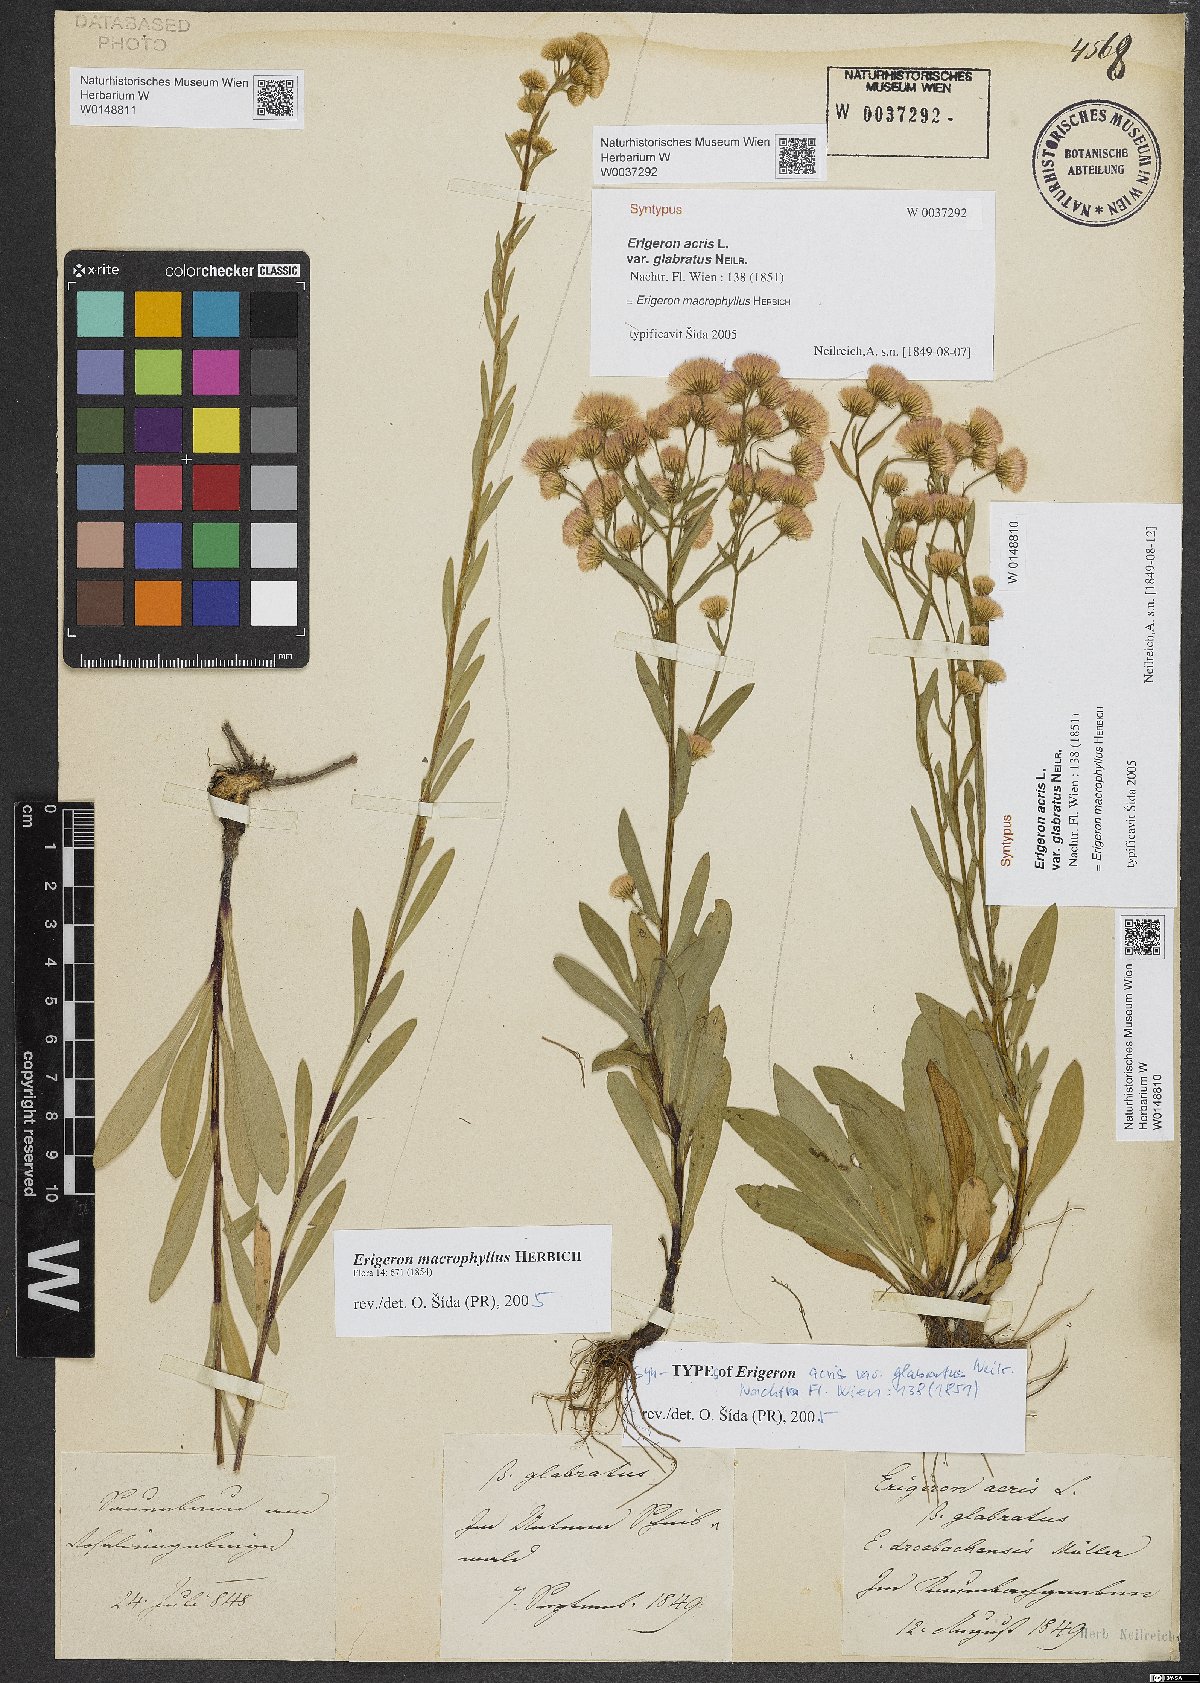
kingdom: Plantae
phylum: Tracheophyta
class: Magnoliopsida
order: Asterales
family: Asteraceae
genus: Erigeron
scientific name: Erigeron macrophyllus
